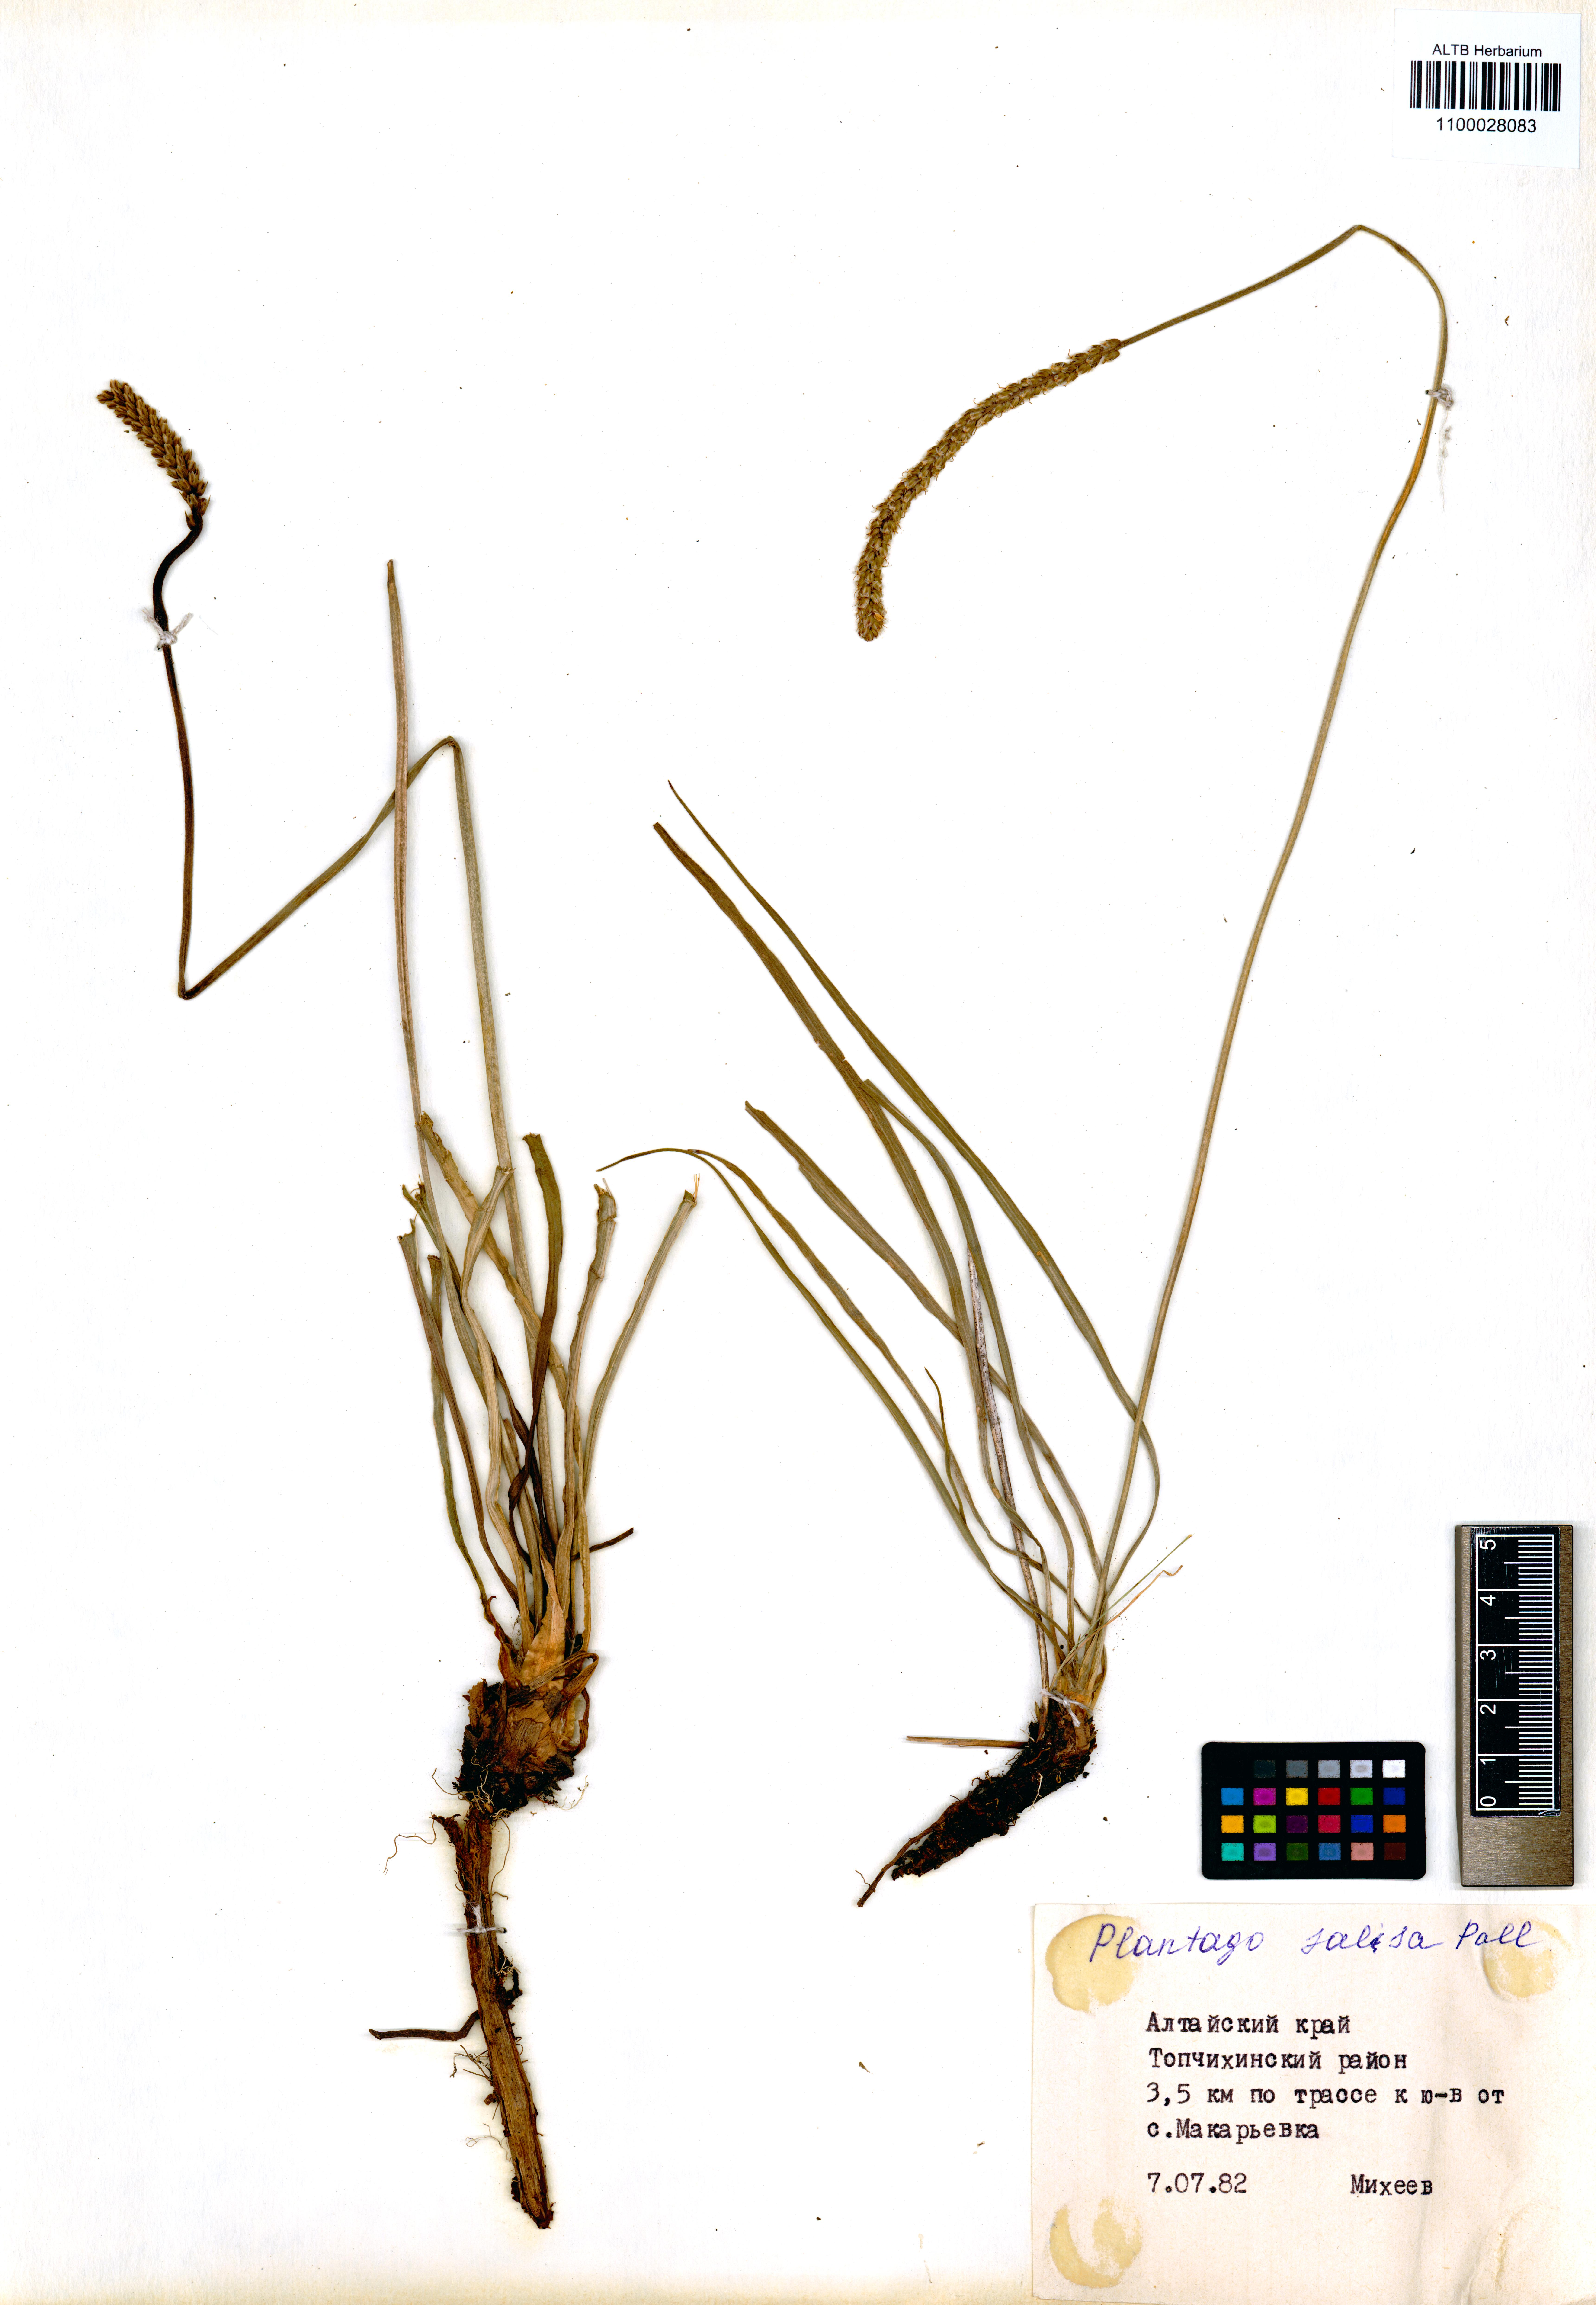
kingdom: Plantae
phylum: Tracheophyta
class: Magnoliopsida
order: Lamiales
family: Plantaginaceae
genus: Plantago
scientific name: Plantago salsa
